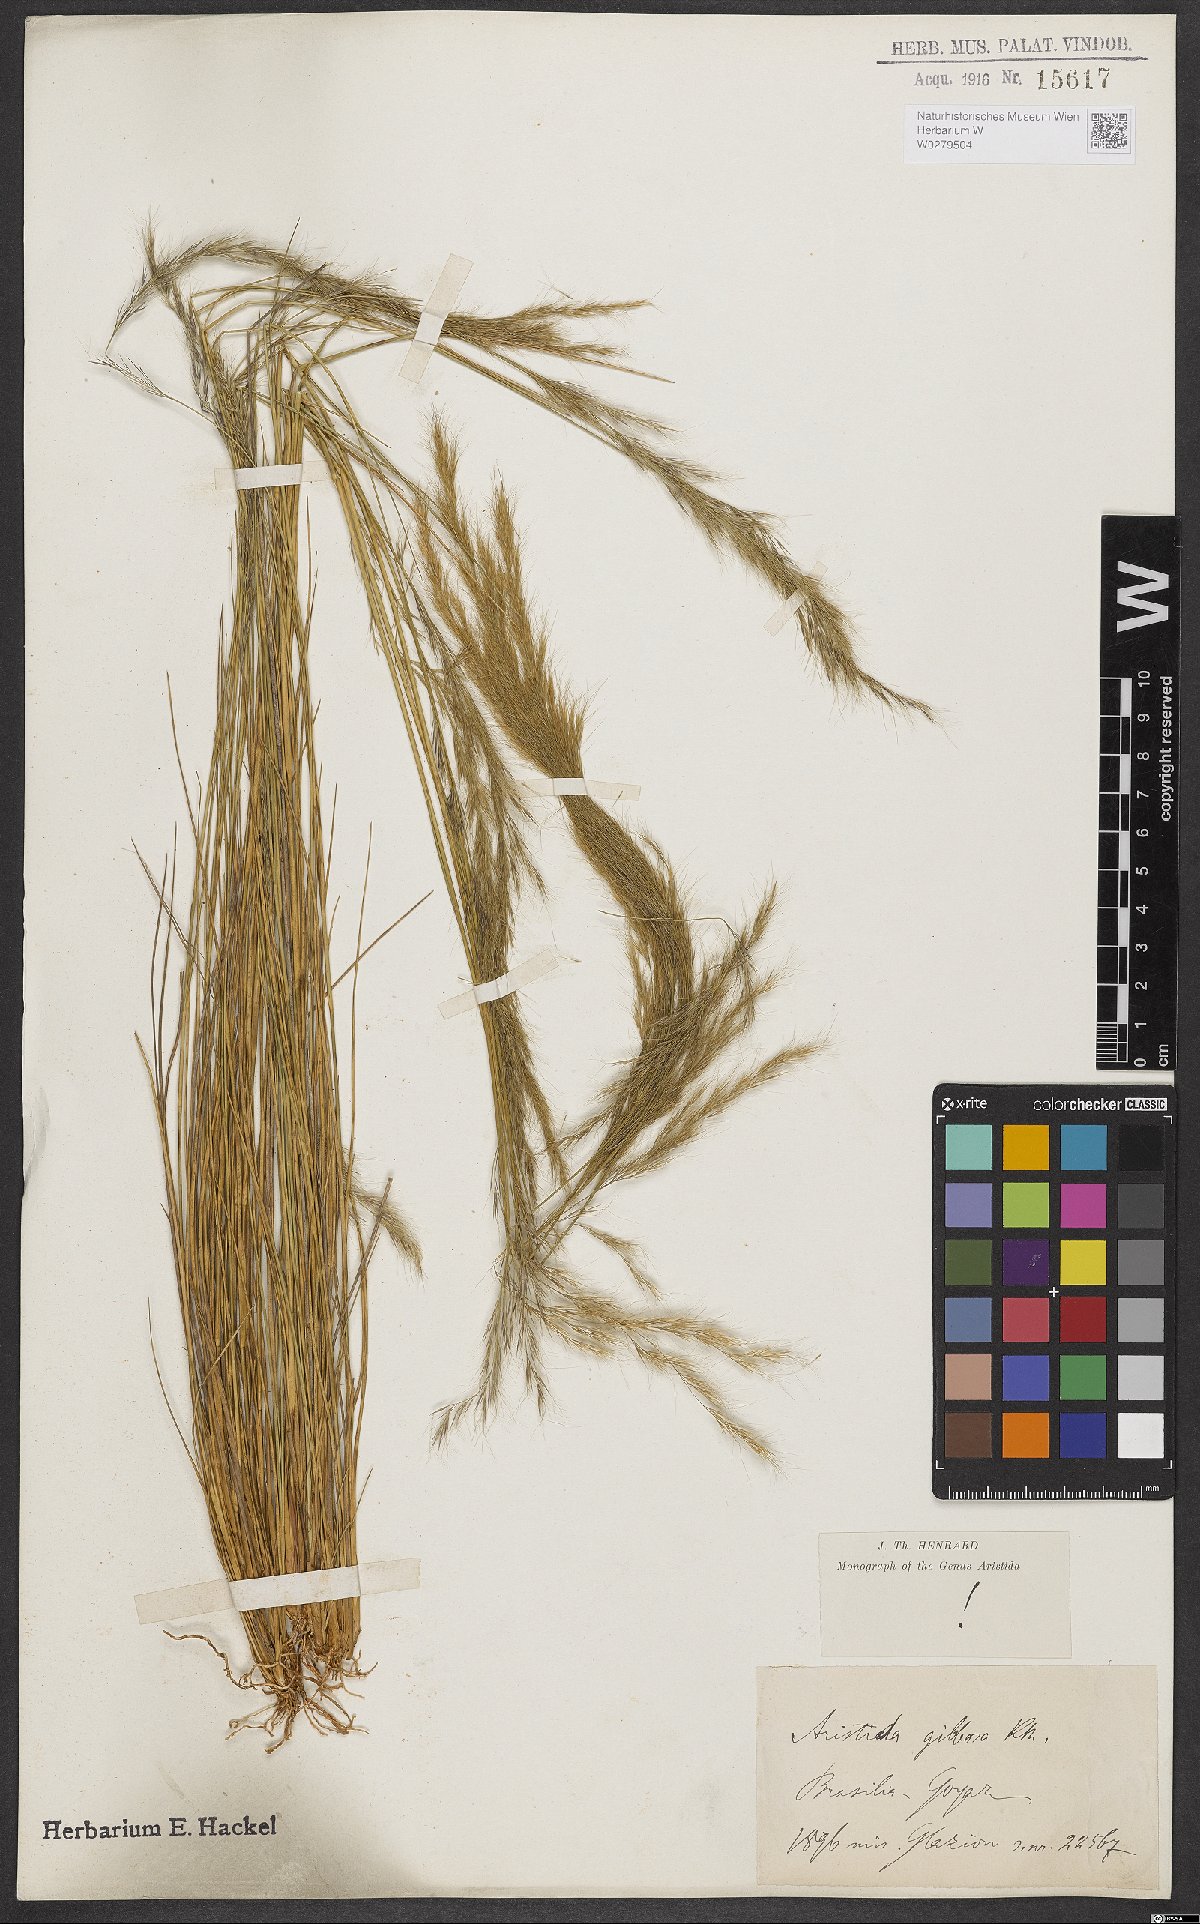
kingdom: Plantae
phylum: Tracheophyta
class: Liliopsida
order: Poales
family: Poaceae
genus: Aristida
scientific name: Aristida gibbosa
